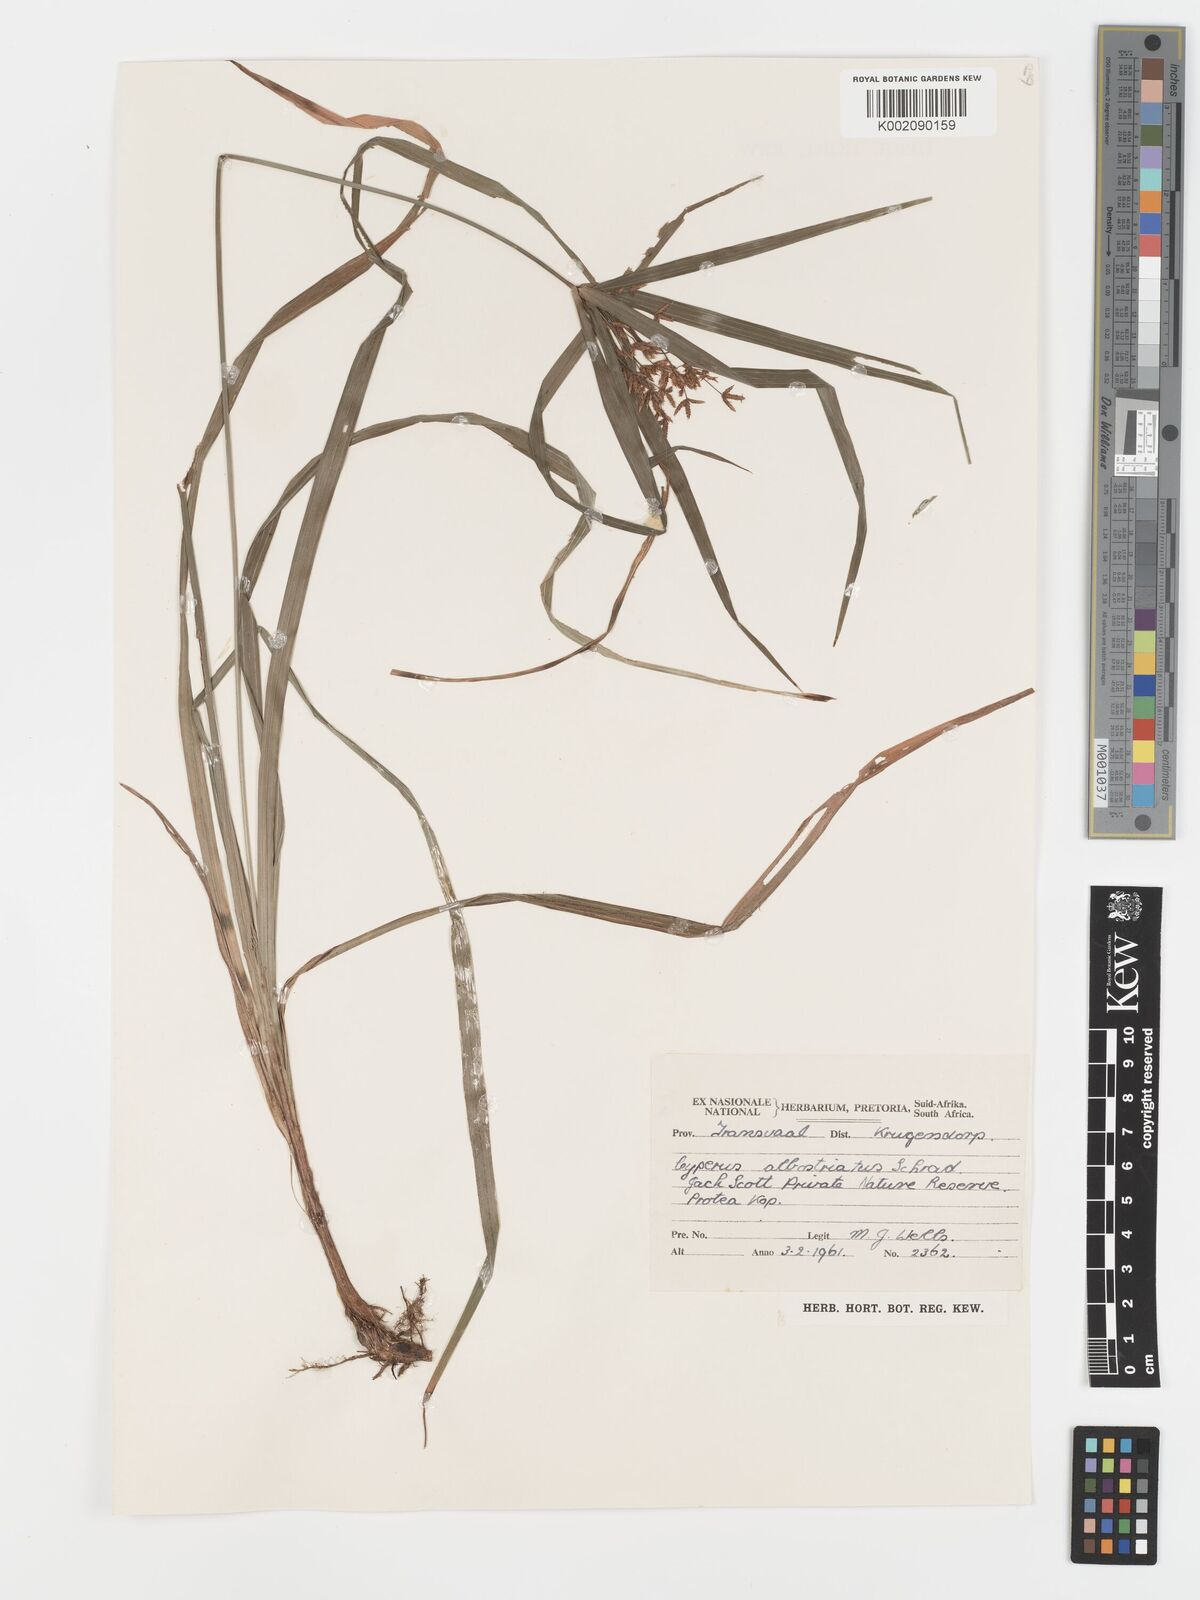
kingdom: Plantae
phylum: Tracheophyta
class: Liliopsida
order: Poales
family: Cyperaceae
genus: Cyperus
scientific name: Cyperus albostriatus
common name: Dwarf umbrella-grass
